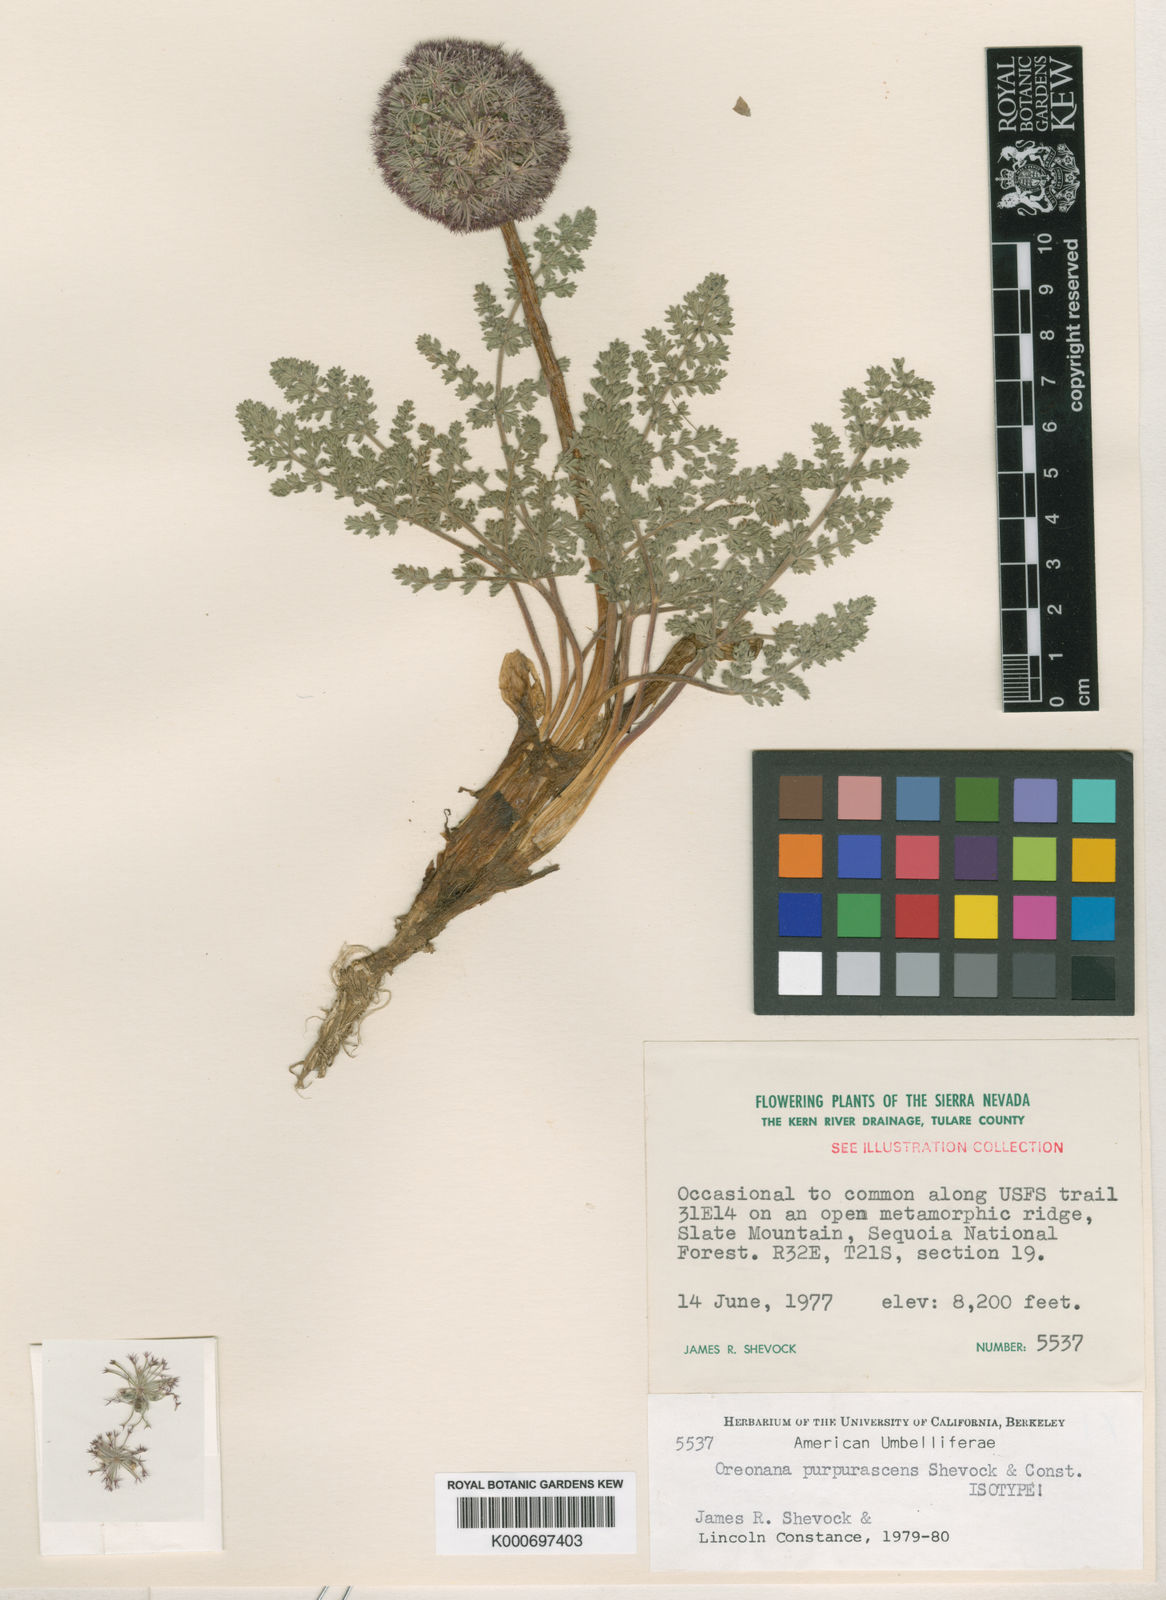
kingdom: Plantae
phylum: Tracheophyta
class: Magnoliopsida
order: Apiales
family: Apiaceae
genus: Oreonana
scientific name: Oreonana purpurascens
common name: Purple mountain-parsley
